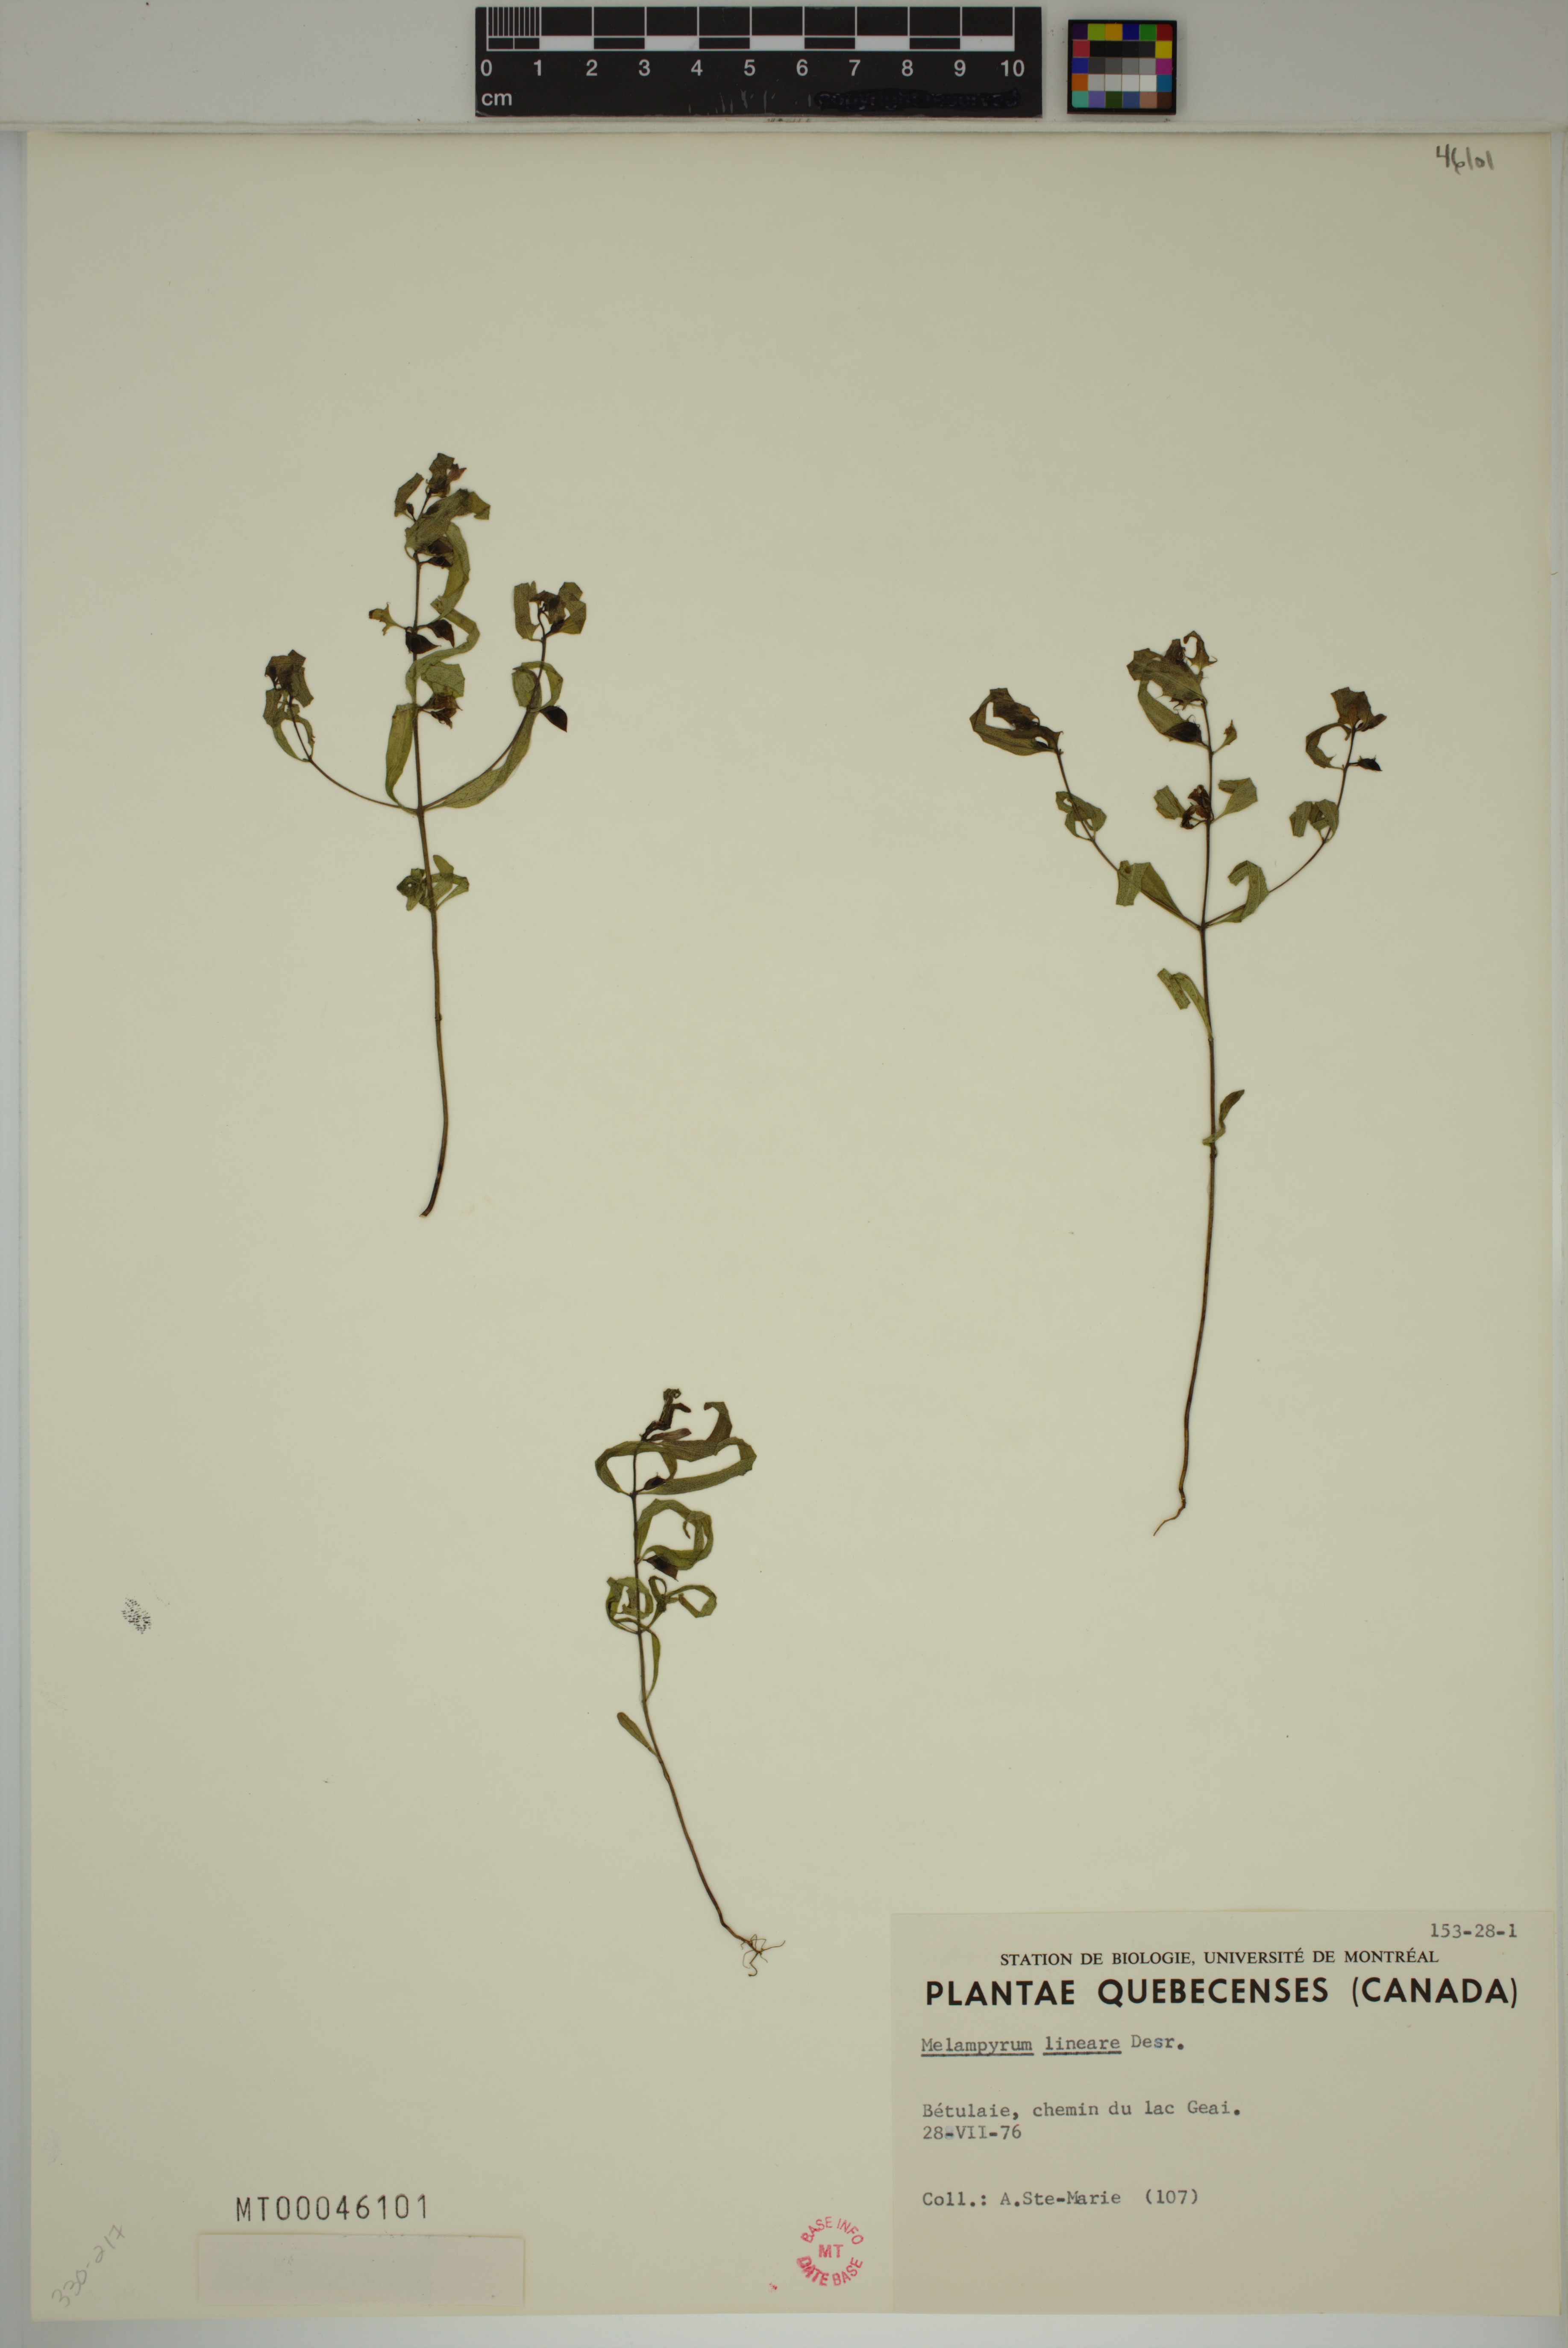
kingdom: Plantae
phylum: Tracheophyta
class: Magnoliopsida
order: Lamiales
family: Orobanchaceae
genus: Melampyrum
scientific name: Melampyrum lineare
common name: American cow-wheat
